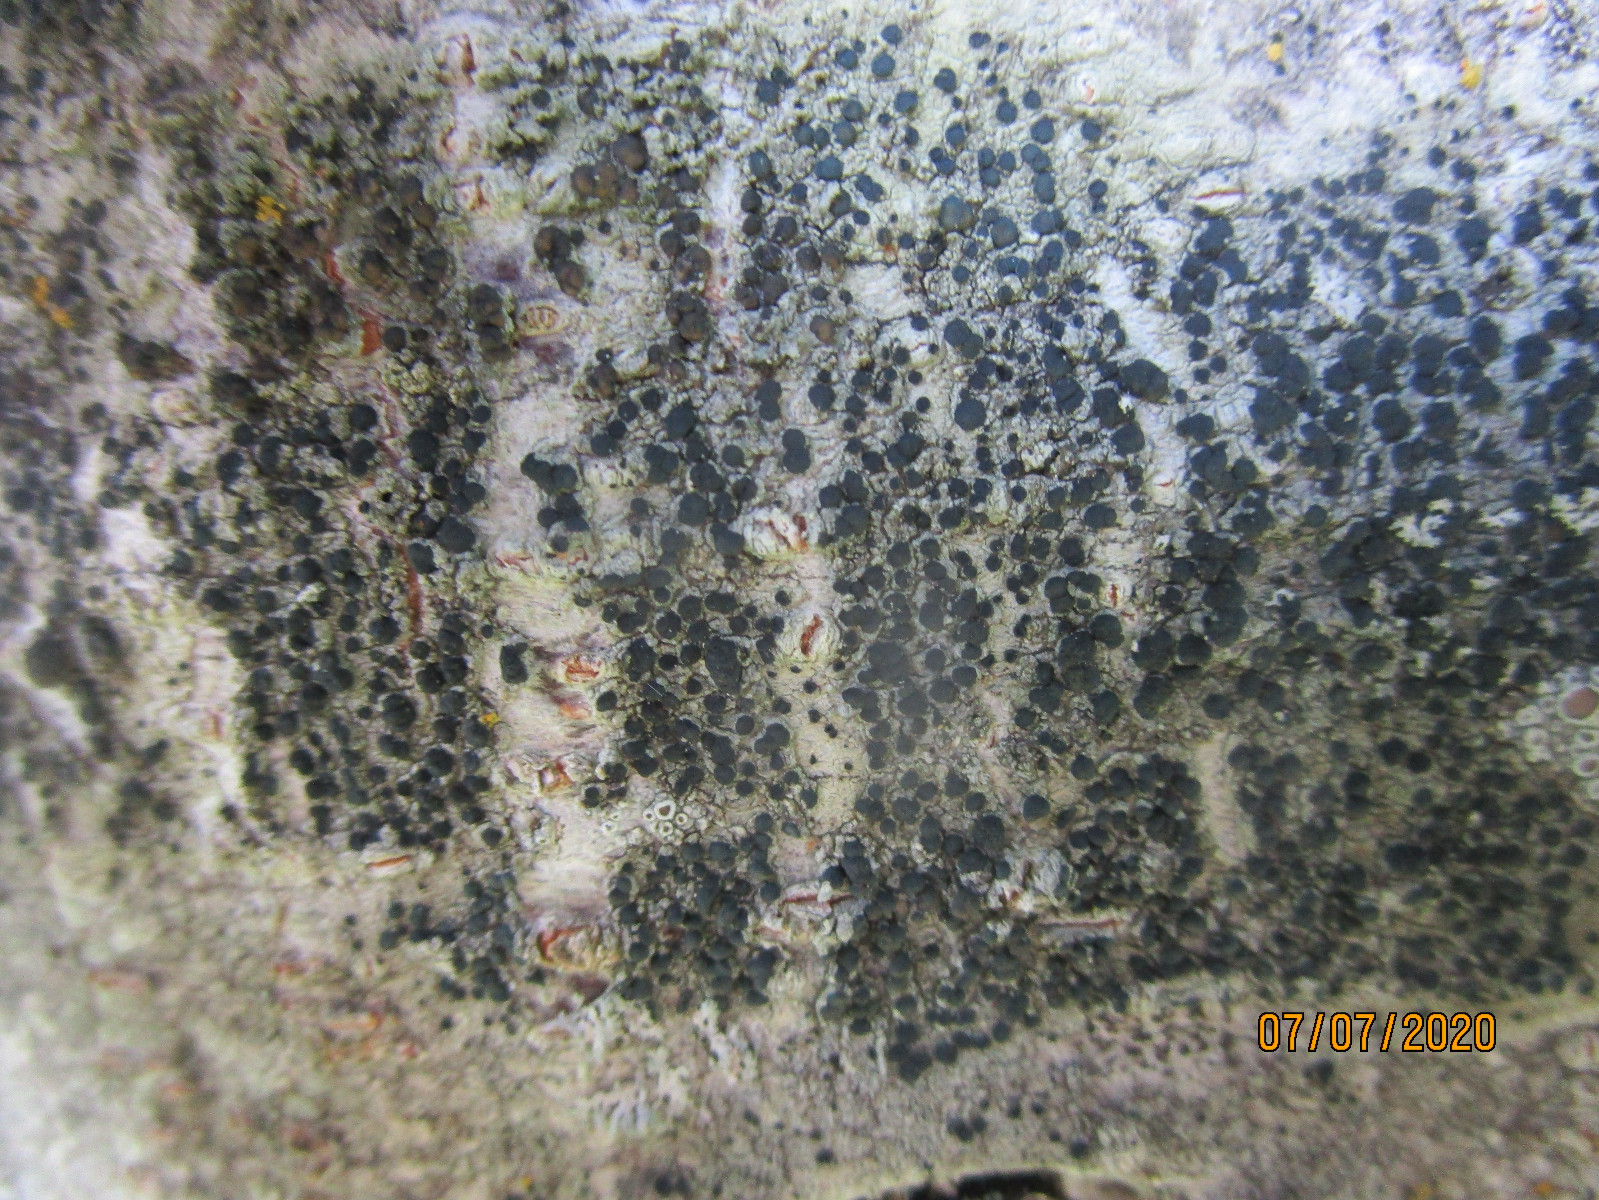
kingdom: Fungi
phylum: Ascomycota
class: Lecanoromycetes
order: Lecanorales
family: Lecanoraceae
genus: Lecidella
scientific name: Lecidella euphorea
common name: vortet skivelav
